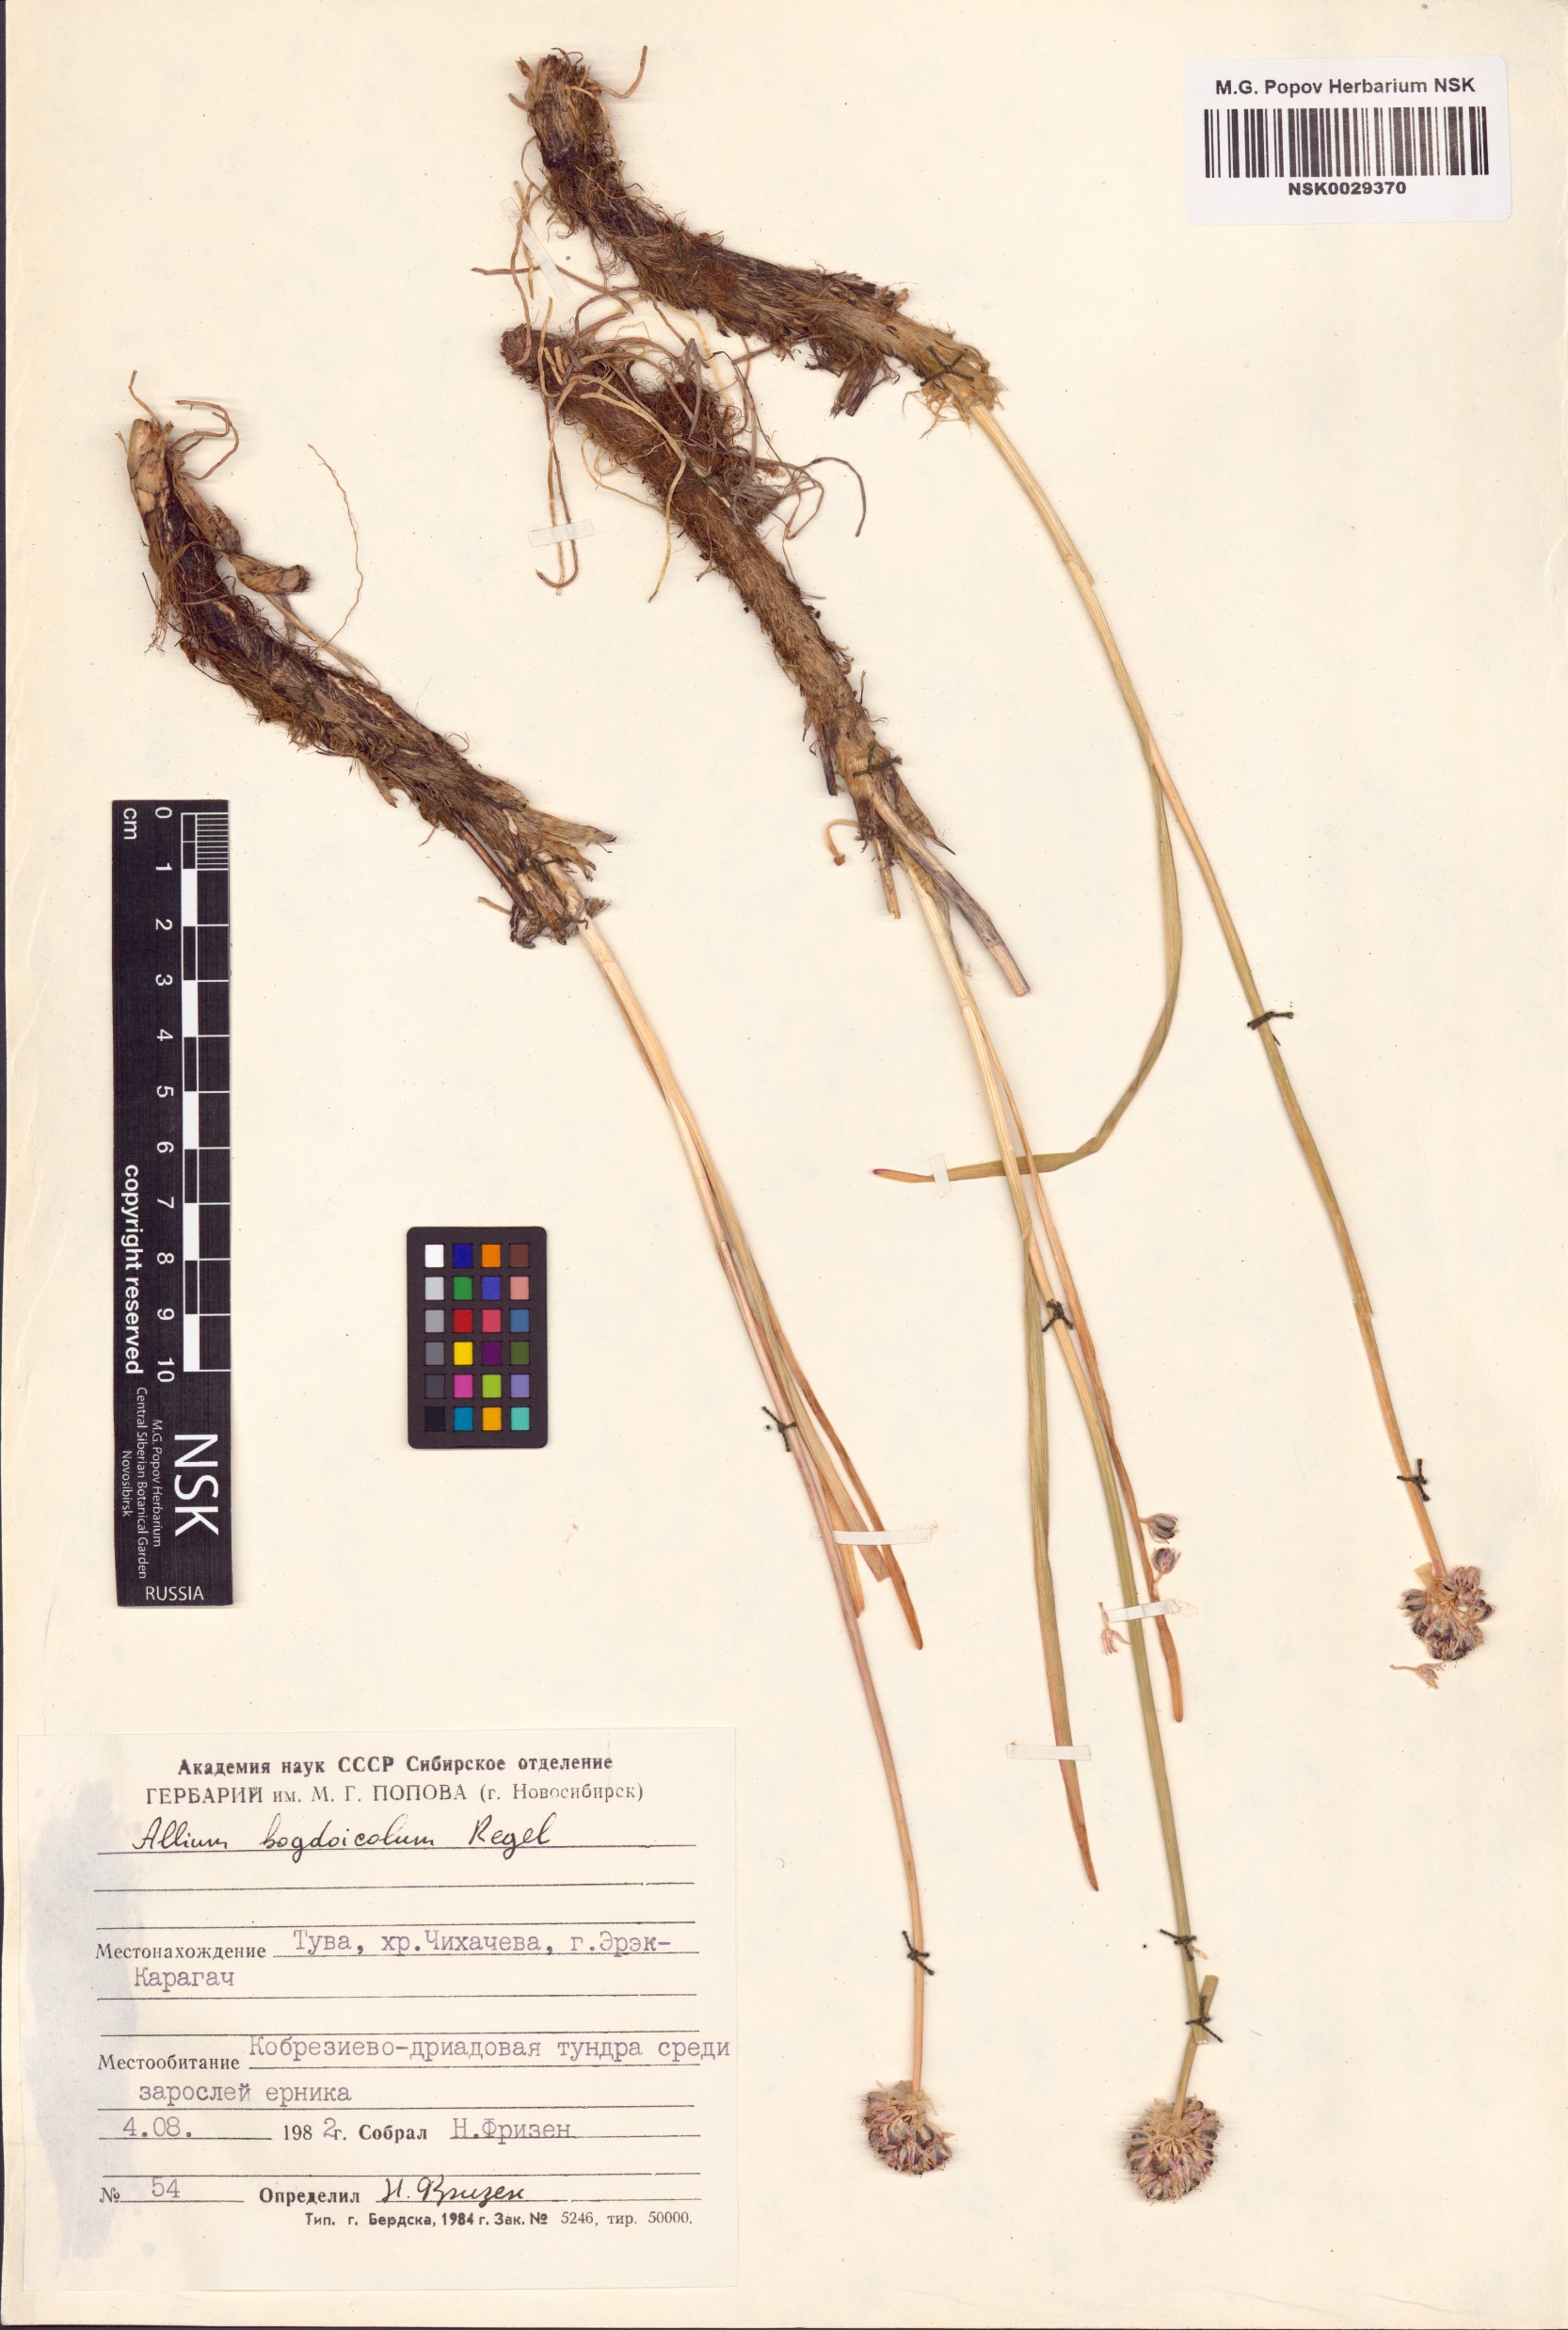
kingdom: Plantae
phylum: Tracheophyta
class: Liliopsida
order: Asparagales
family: Amaryllidaceae
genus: Allium
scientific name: Allium schrenkii
